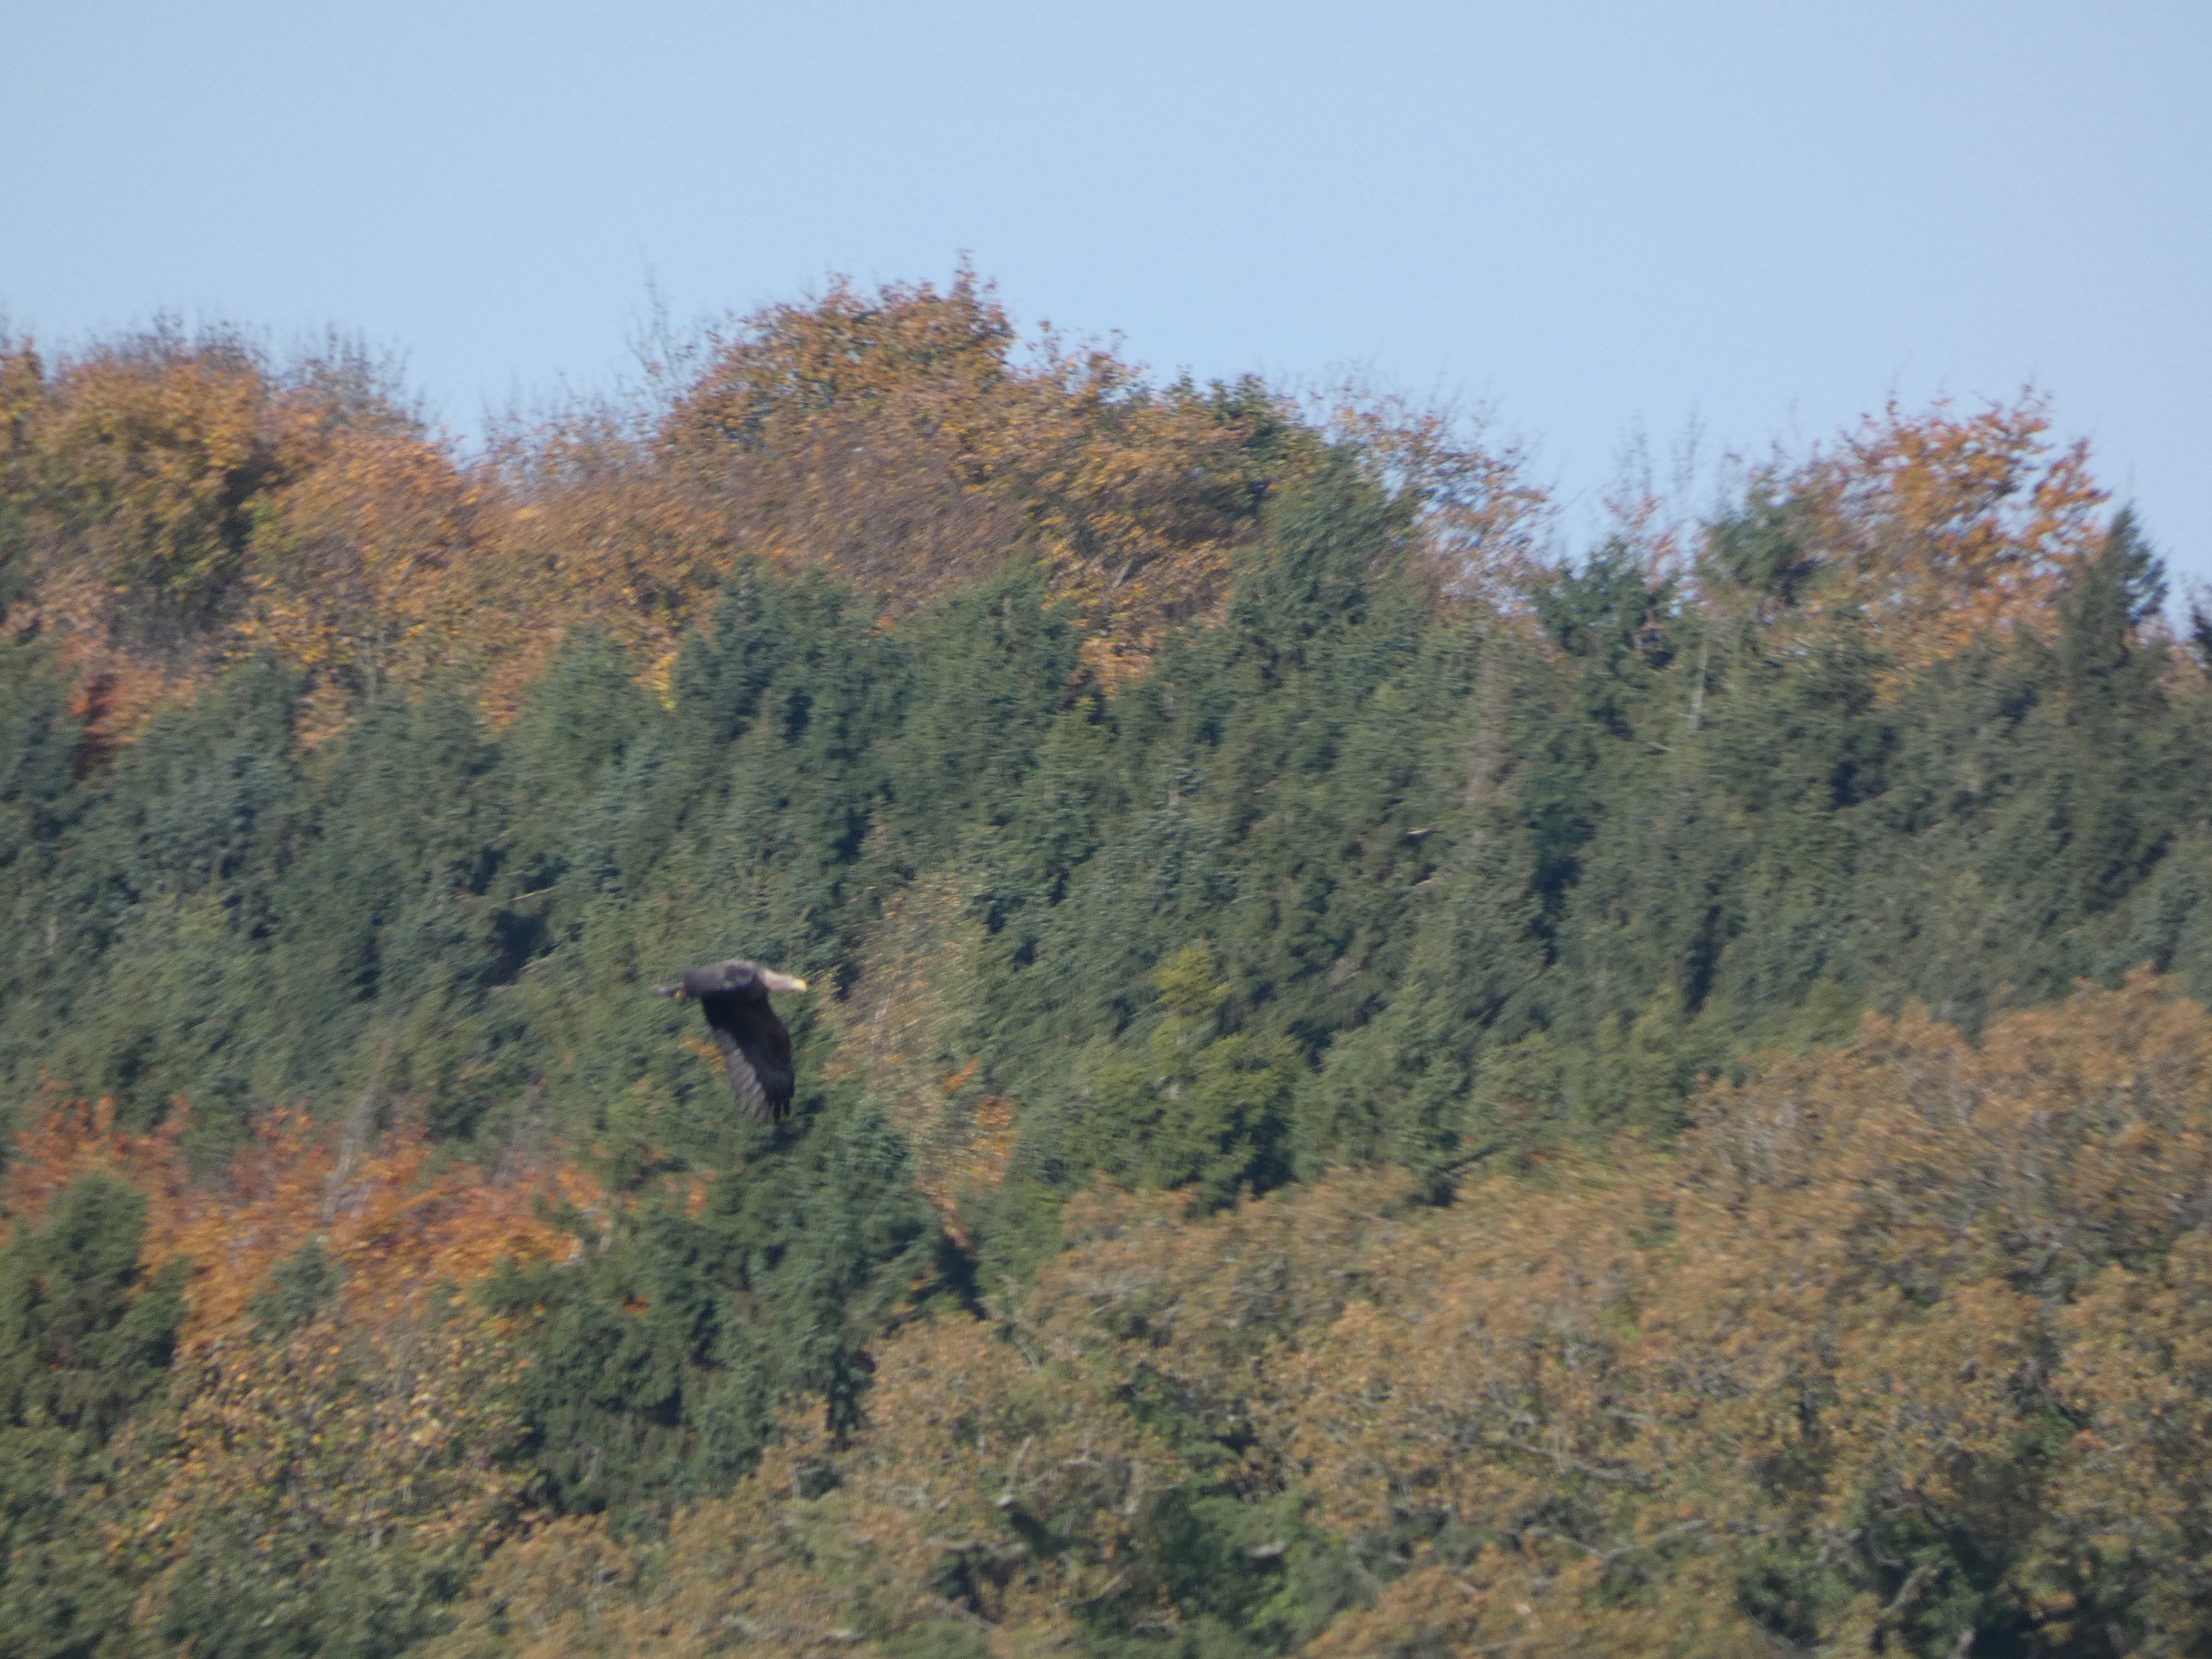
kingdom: Animalia
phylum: Chordata
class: Aves
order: Accipitriformes
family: Accipitridae
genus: Haliaeetus
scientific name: Haliaeetus albicilla
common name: Havørn
